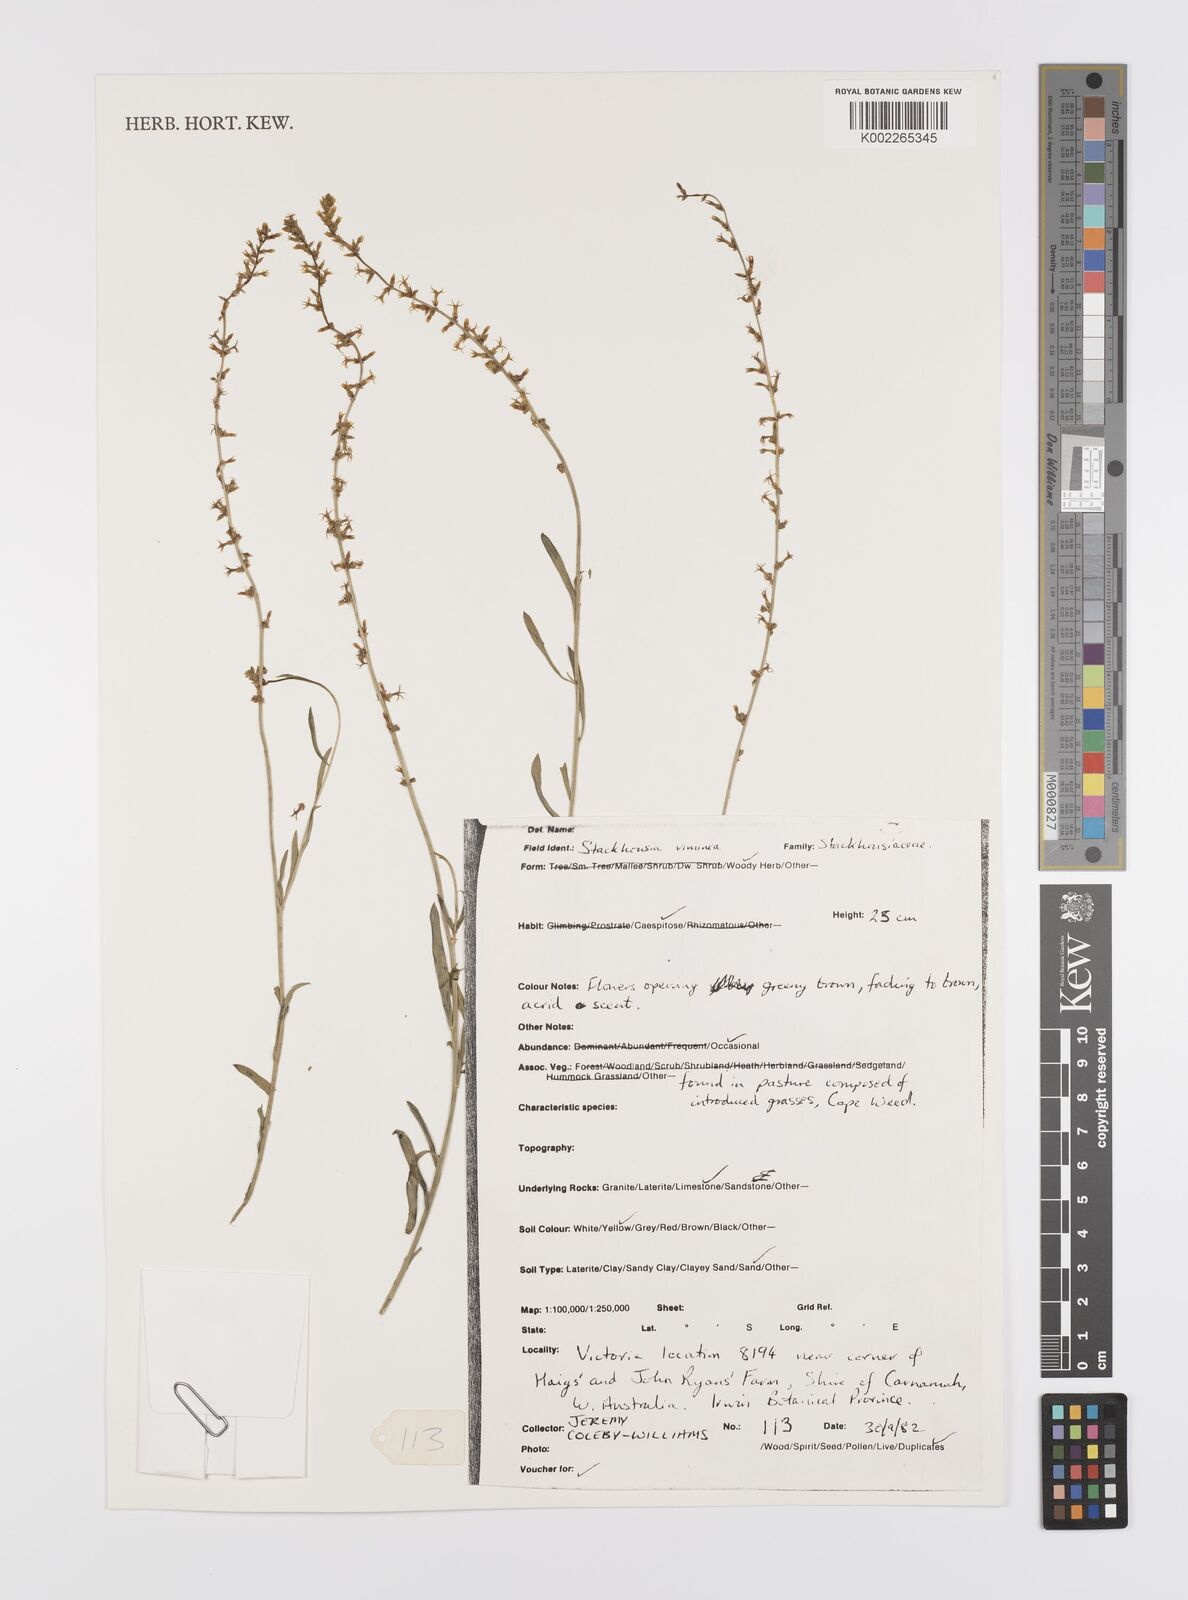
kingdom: Plantae
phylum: Tracheophyta
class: Magnoliopsida
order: Celastrales
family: Celastraceae
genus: Stackhousia
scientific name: Stackhousia viminea
